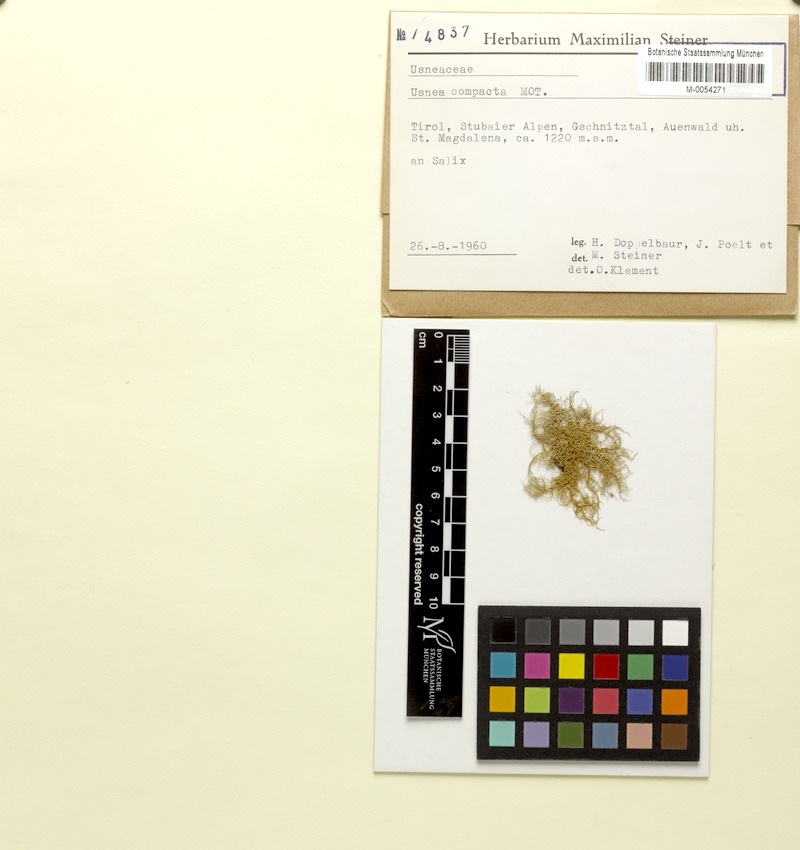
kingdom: Fungi
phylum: Ascomycota
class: Lecanoromycetes
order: Lecanorales
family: Parmeliaceae
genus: Usnea
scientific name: Usnea glabrescens
